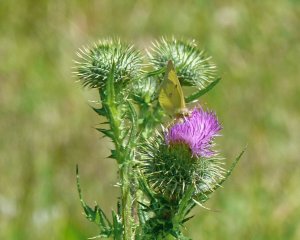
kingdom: Animalia
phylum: Arthropoda
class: Insecta
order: Lepidoptera
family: Pieridae
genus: Colias
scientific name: Colias philodice
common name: Clouded Sulphur
